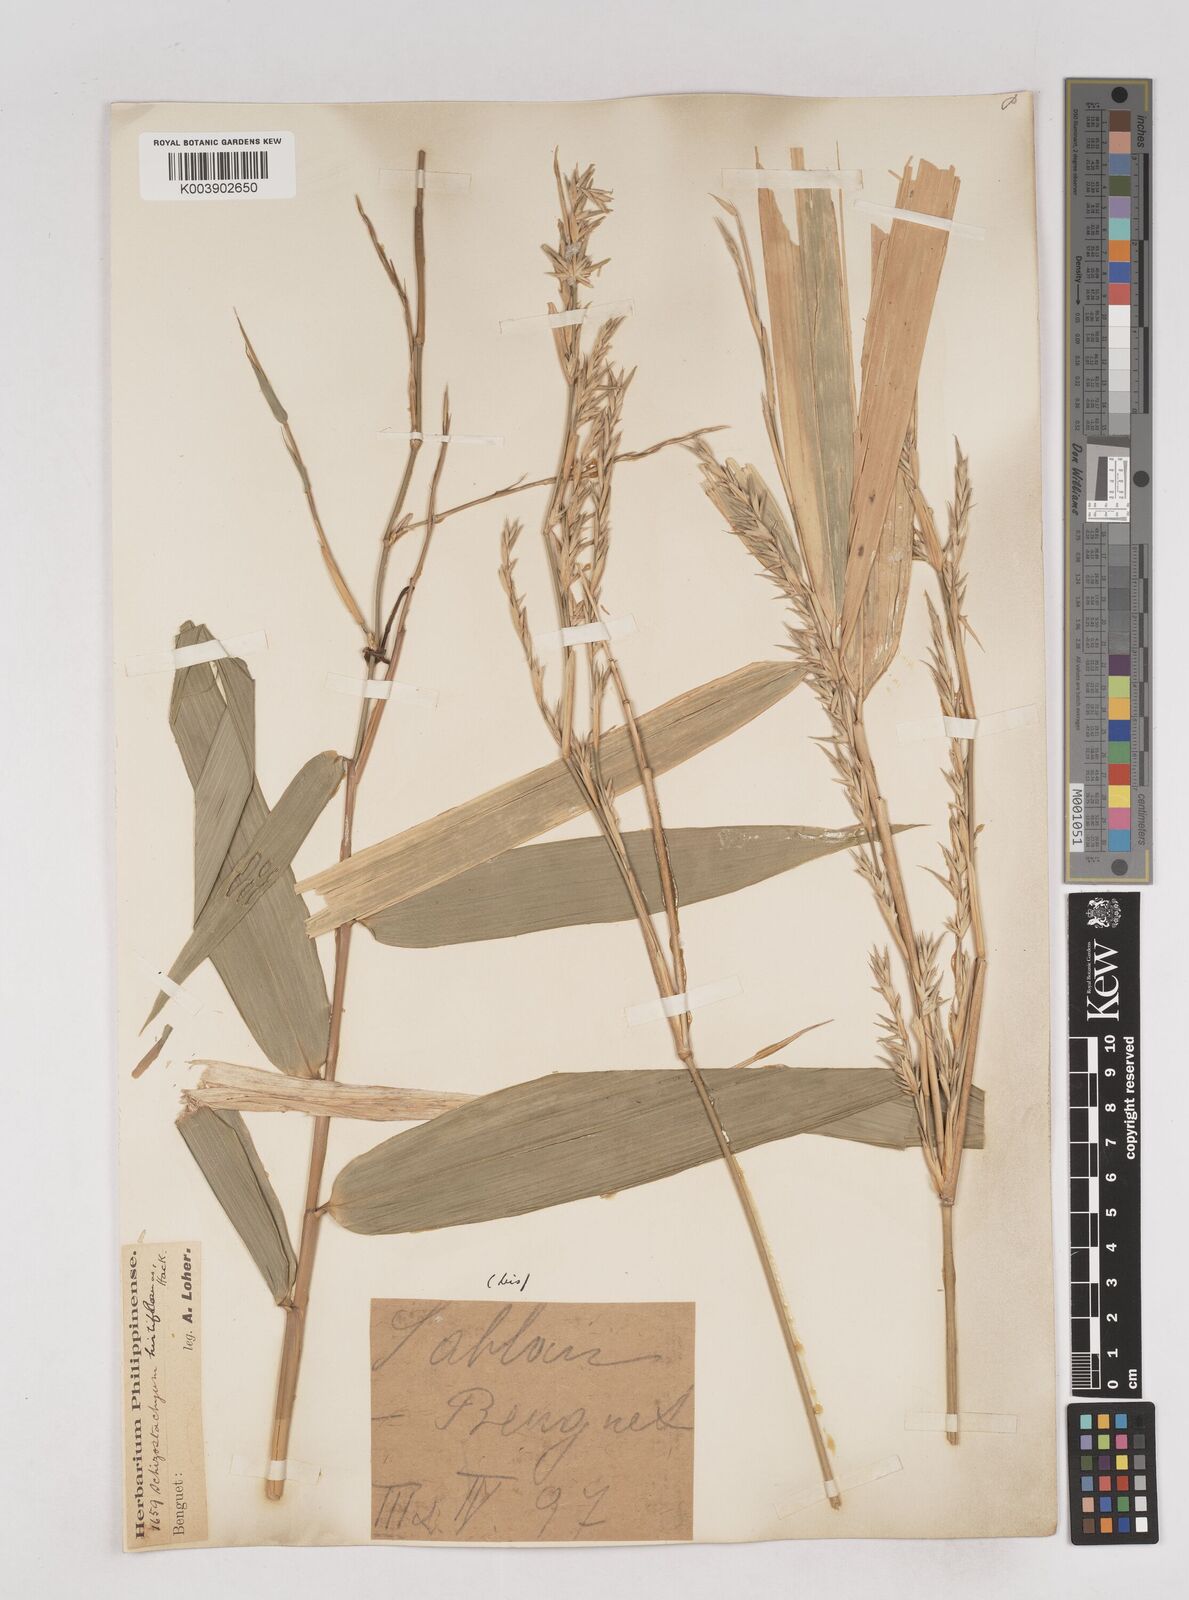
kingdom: Plantae
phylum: Tracheophyta
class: Liliopsida
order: Poales
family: Poaceae
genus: Schizostachyum
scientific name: Schizostachyum lumampao
